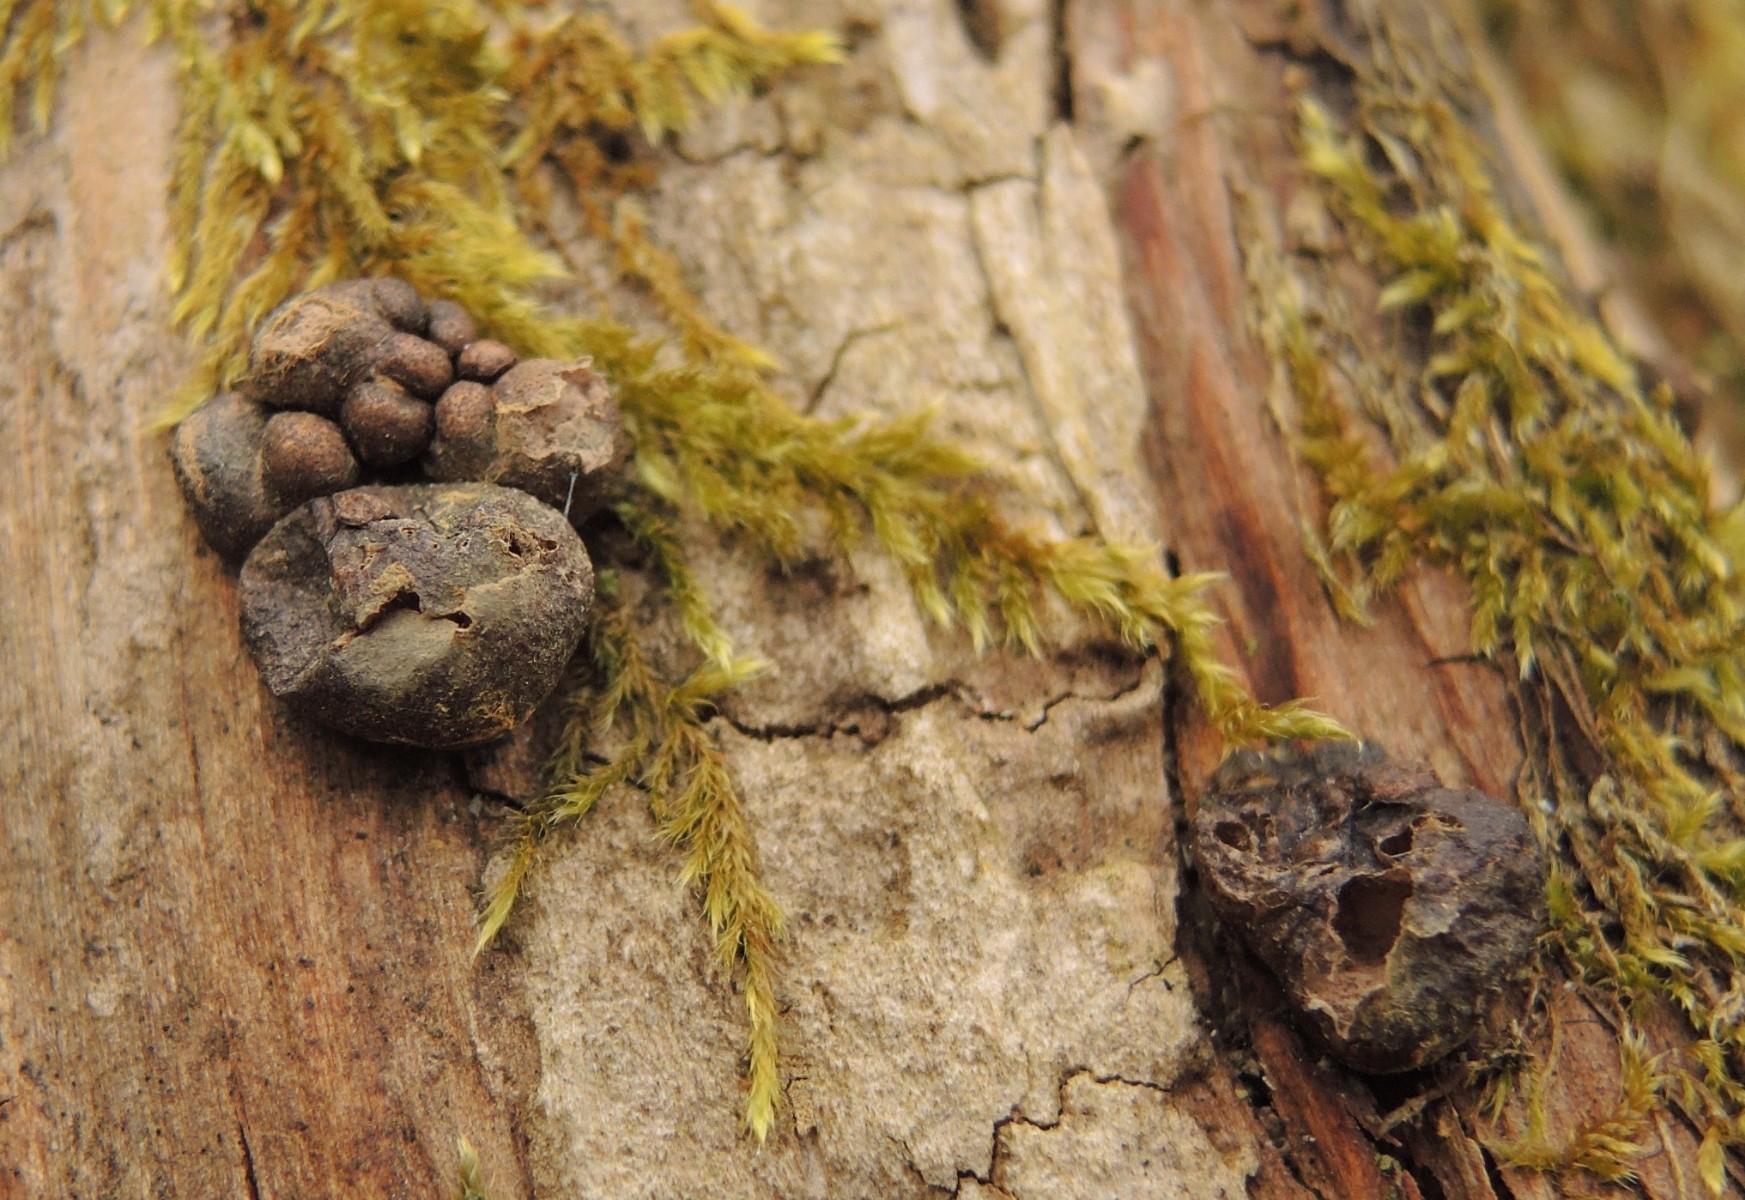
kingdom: Protozoa
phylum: Mycetozoa
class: Myxomycetes
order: Cribrariales
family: Tubiferaceae
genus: Lycogala
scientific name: Lycogala epidendrum
